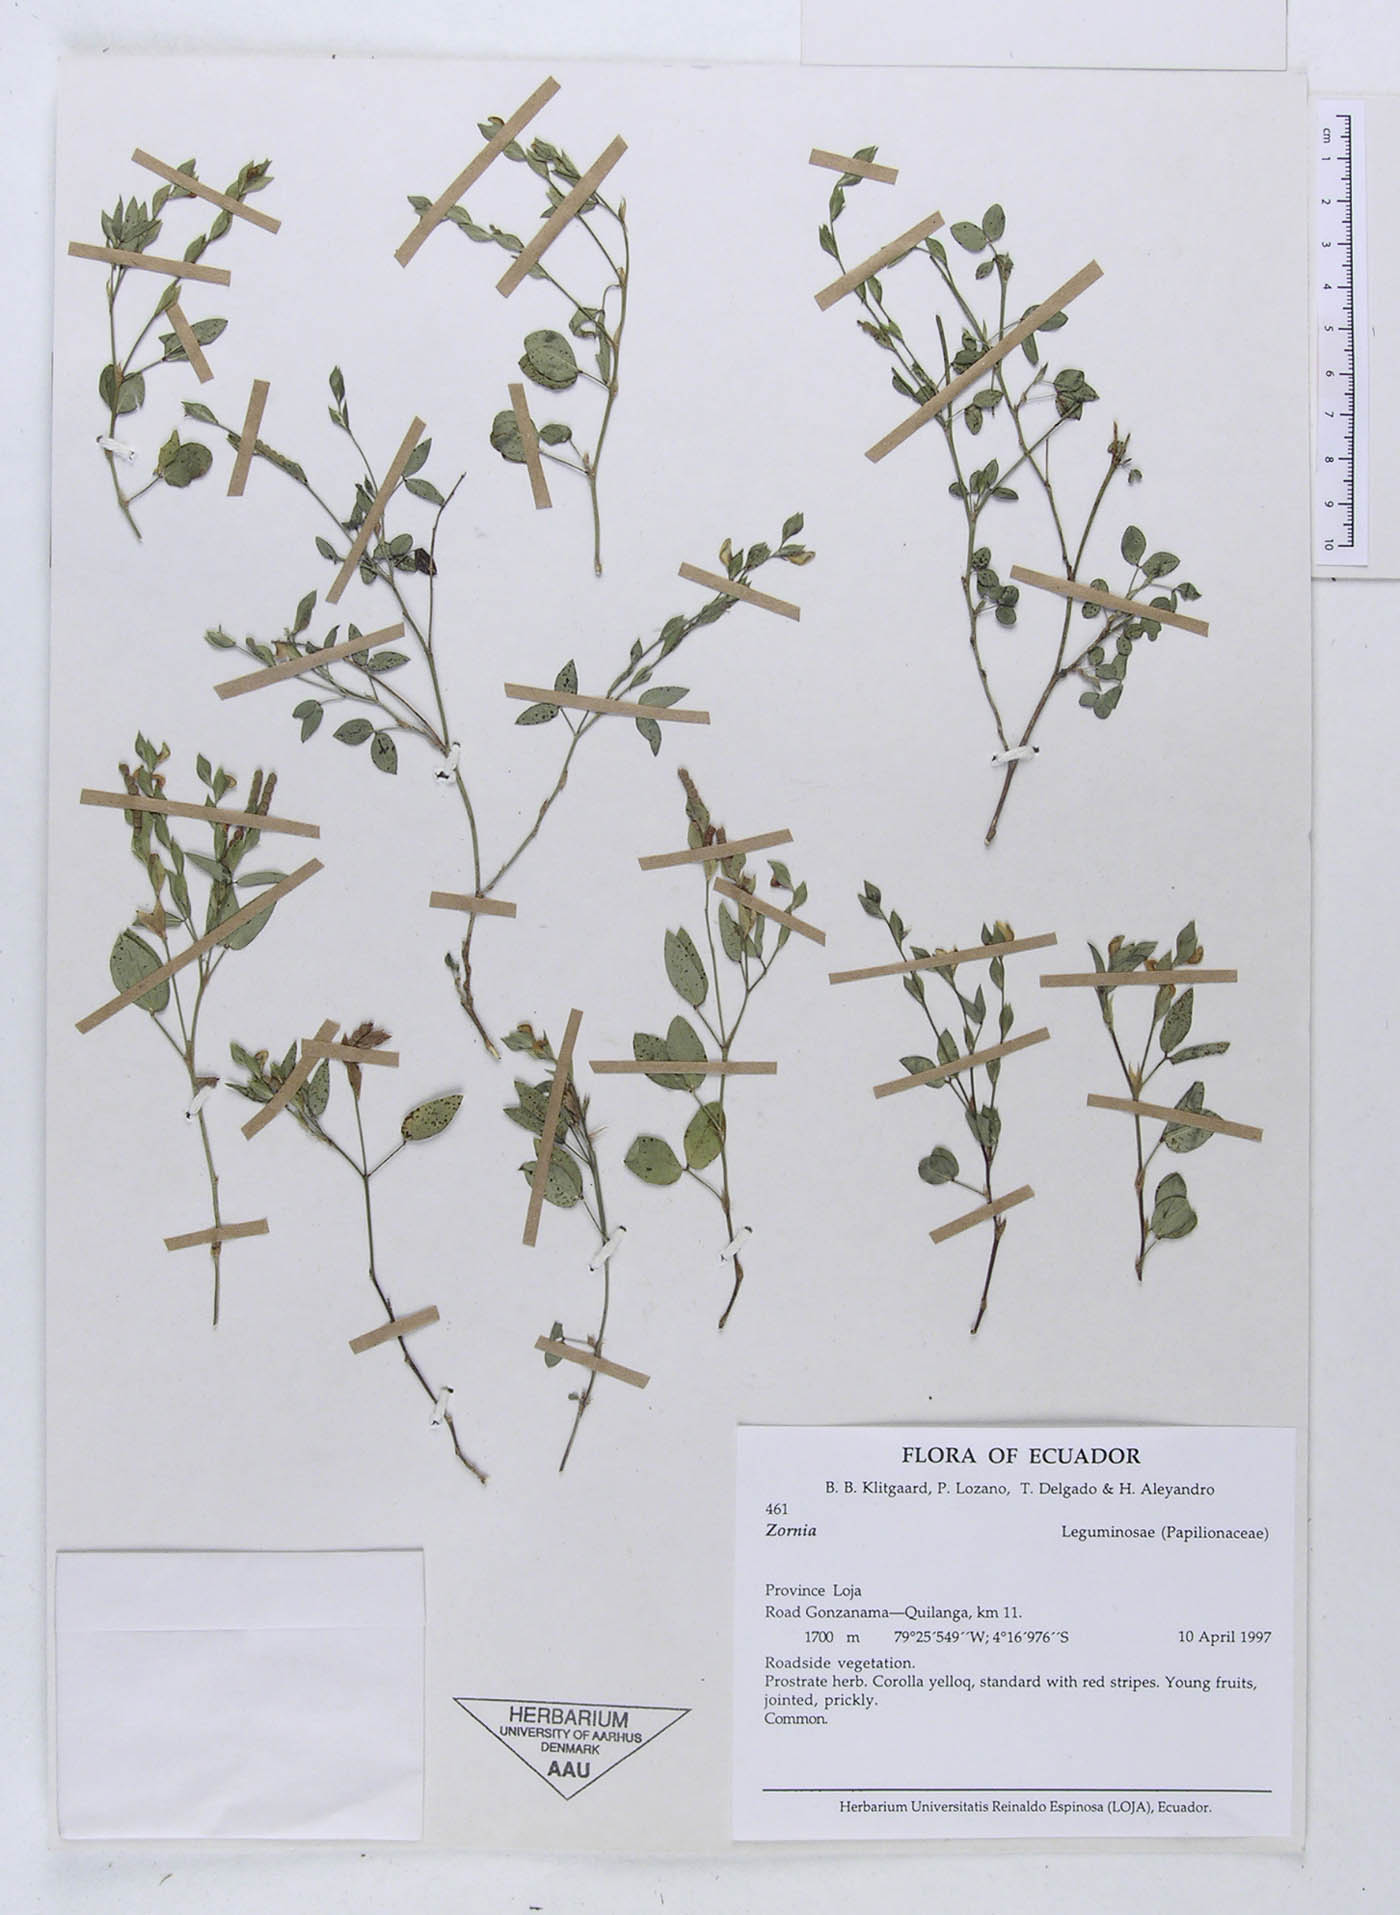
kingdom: Plantae
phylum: Tracheophyta
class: Magnoliopsida
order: Fabales
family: Fabaceae
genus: Zornia
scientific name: Zornia piurensis
